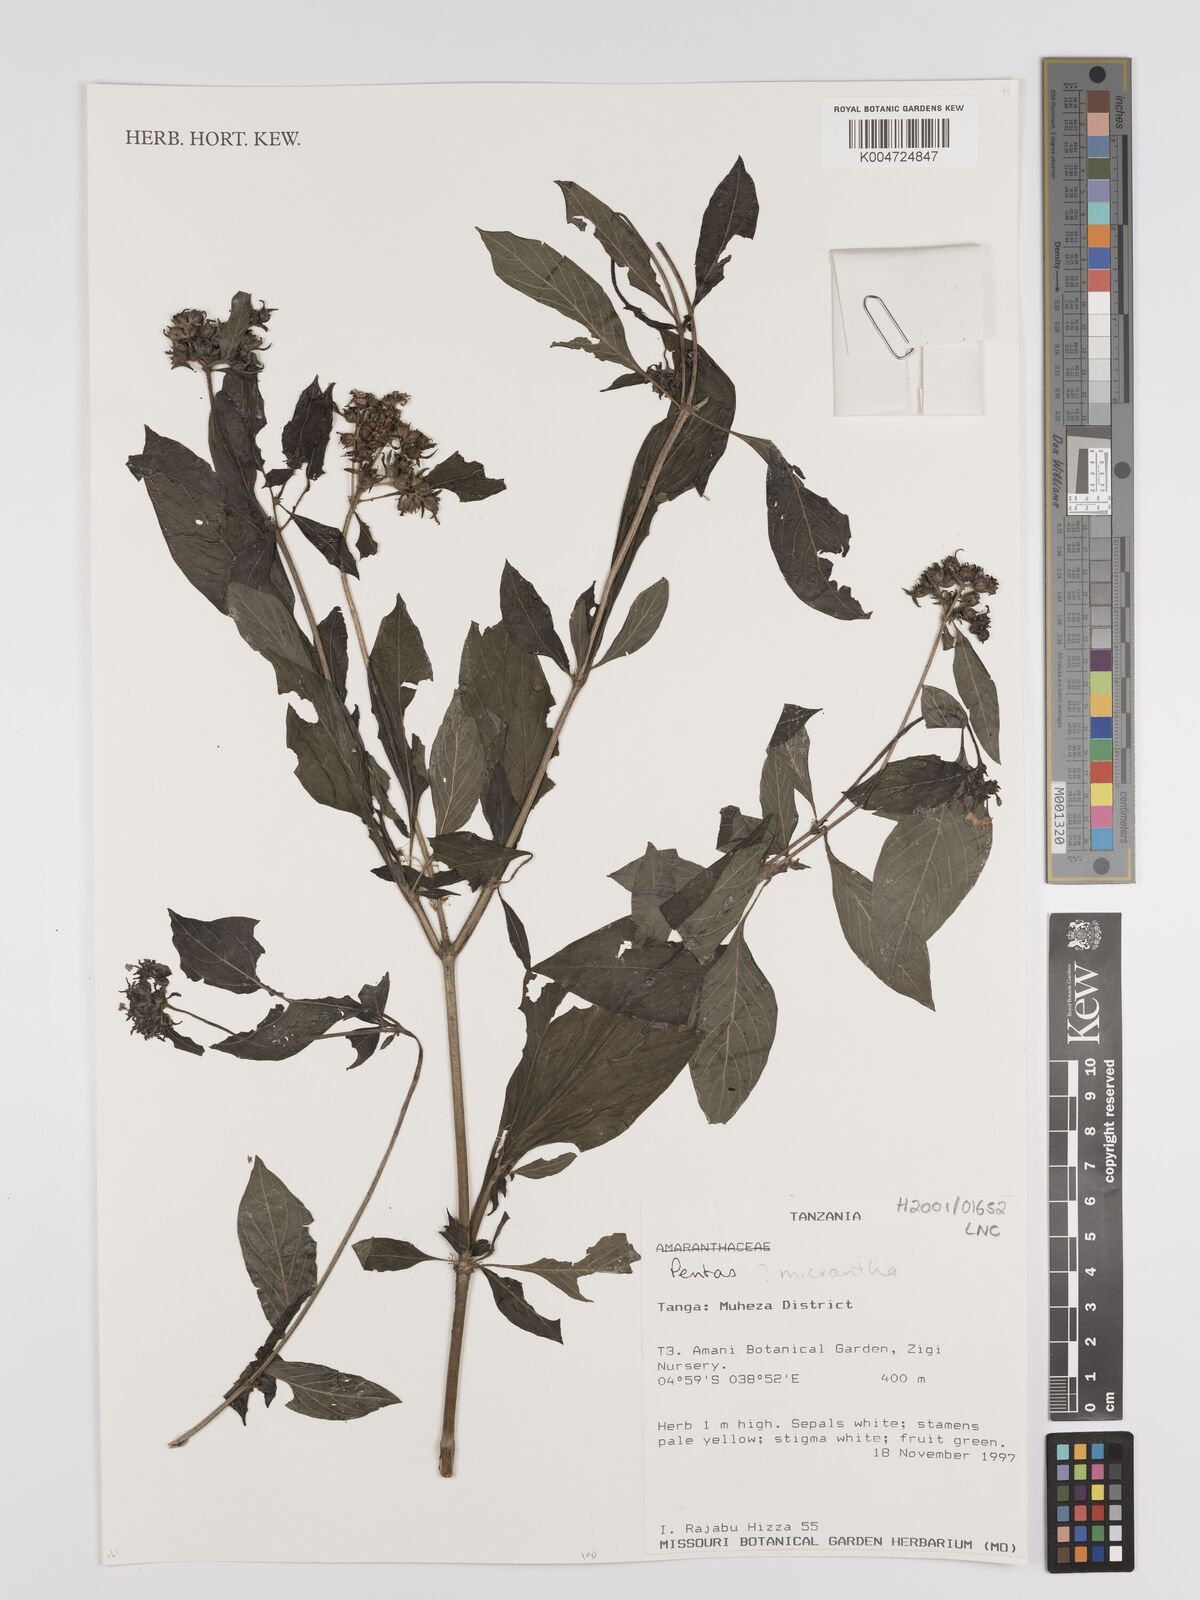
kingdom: Plantae
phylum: Tracheophyta
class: Magnoliopsida
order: Gentianales
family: Rubiaceae
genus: Pentas
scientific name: Pentas micrantha
